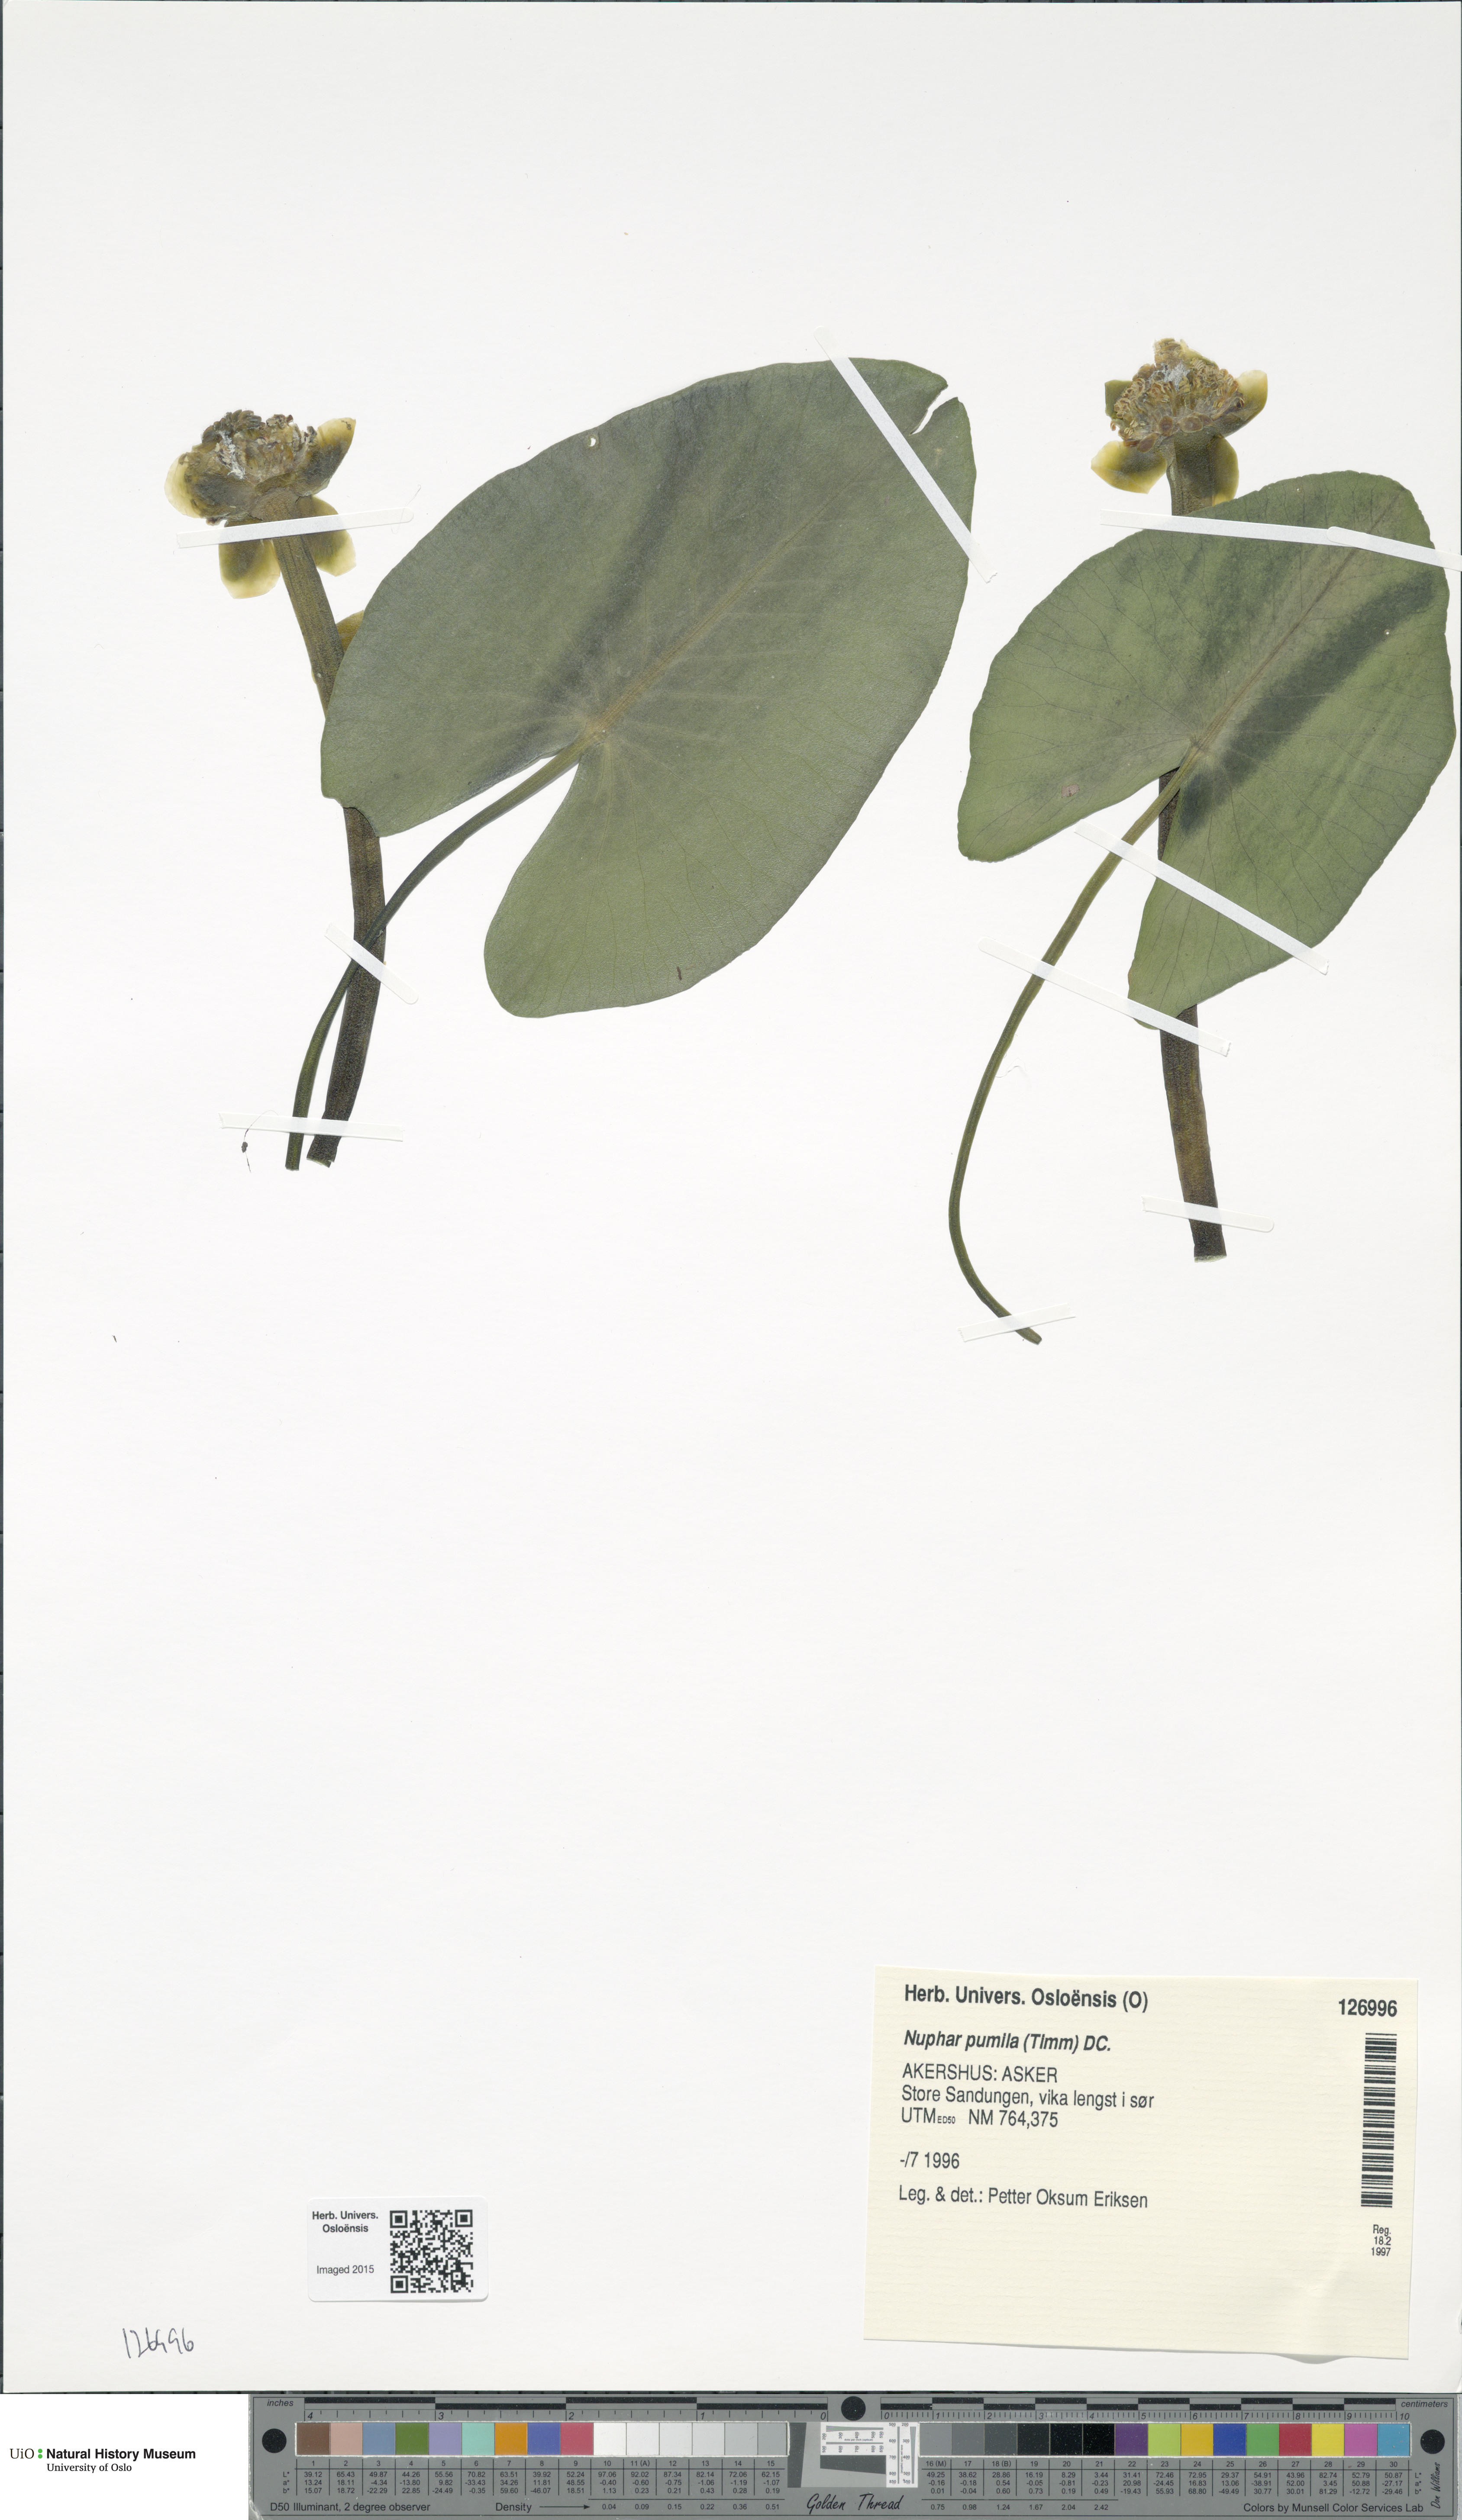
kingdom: Plantae
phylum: Tracheophyta
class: Magnoliopsida
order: Nymphaeales
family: Nymphaeaceae
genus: Nuphar
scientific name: Nuphar pumila
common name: Least water-lily
